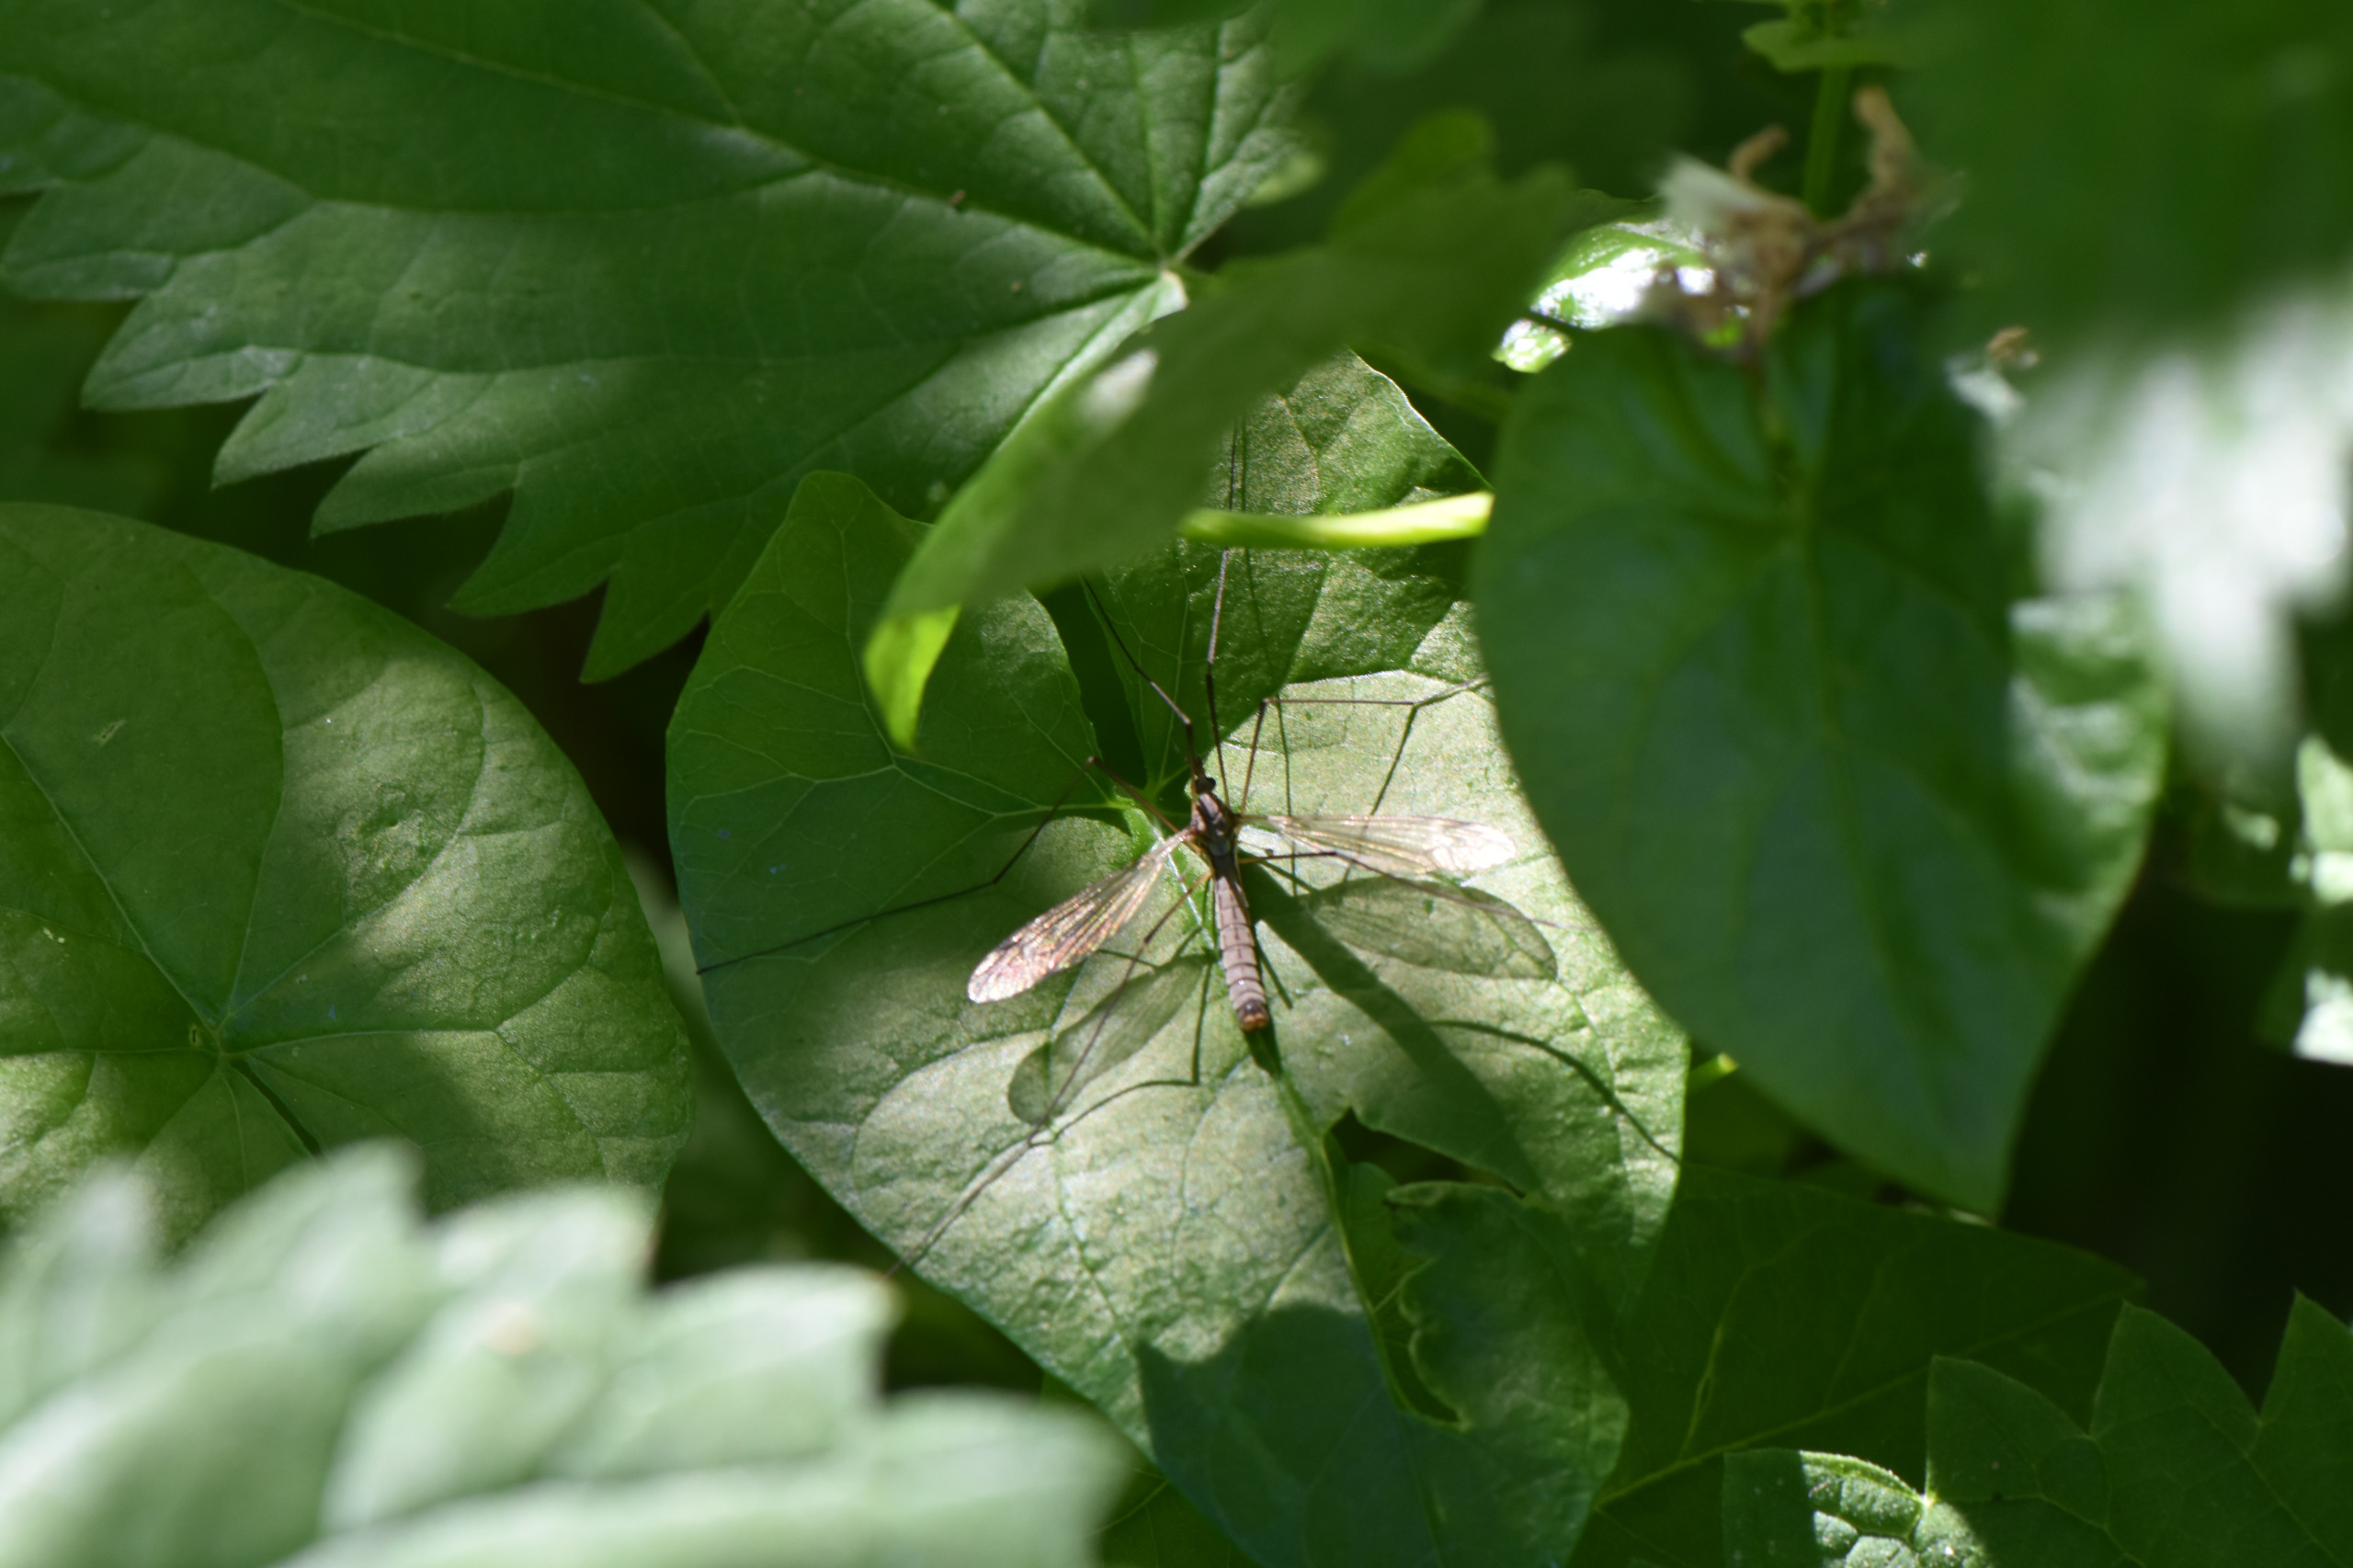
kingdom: Animalia
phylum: Arthropoda
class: Insecta
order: Diptera
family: Tipulidae
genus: Tipula
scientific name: Tipula luna
